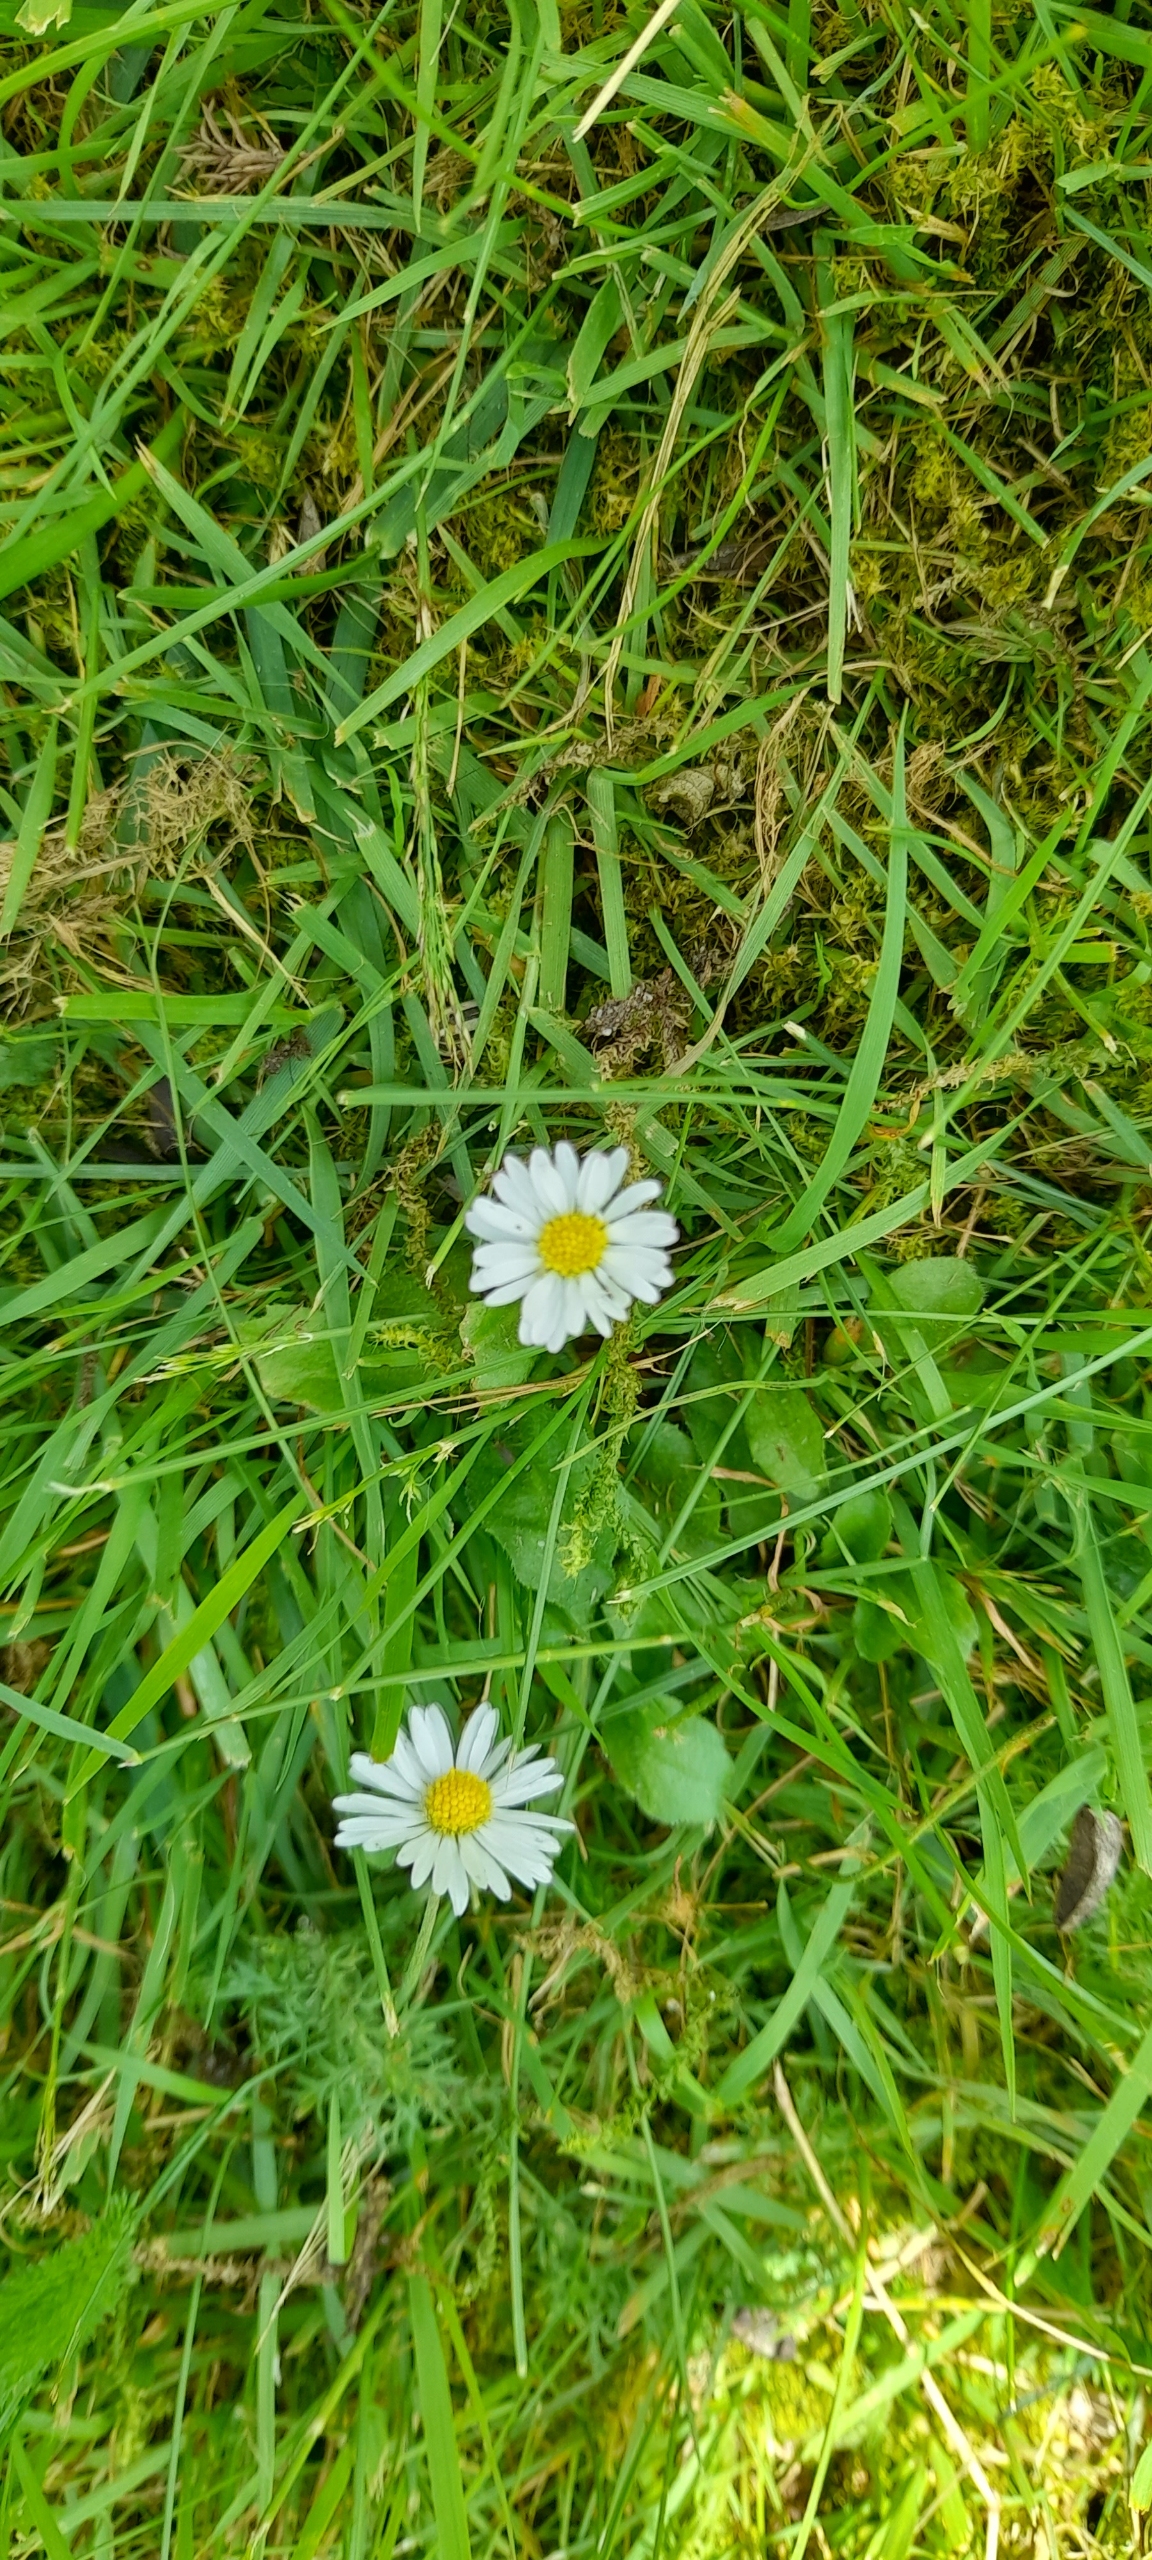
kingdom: Plantae
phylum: Tracheophyta
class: Magnoliopsida
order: Asterales
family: Asteraceae
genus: Bellis
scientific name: Bellis perennis
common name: Tusindfryd
